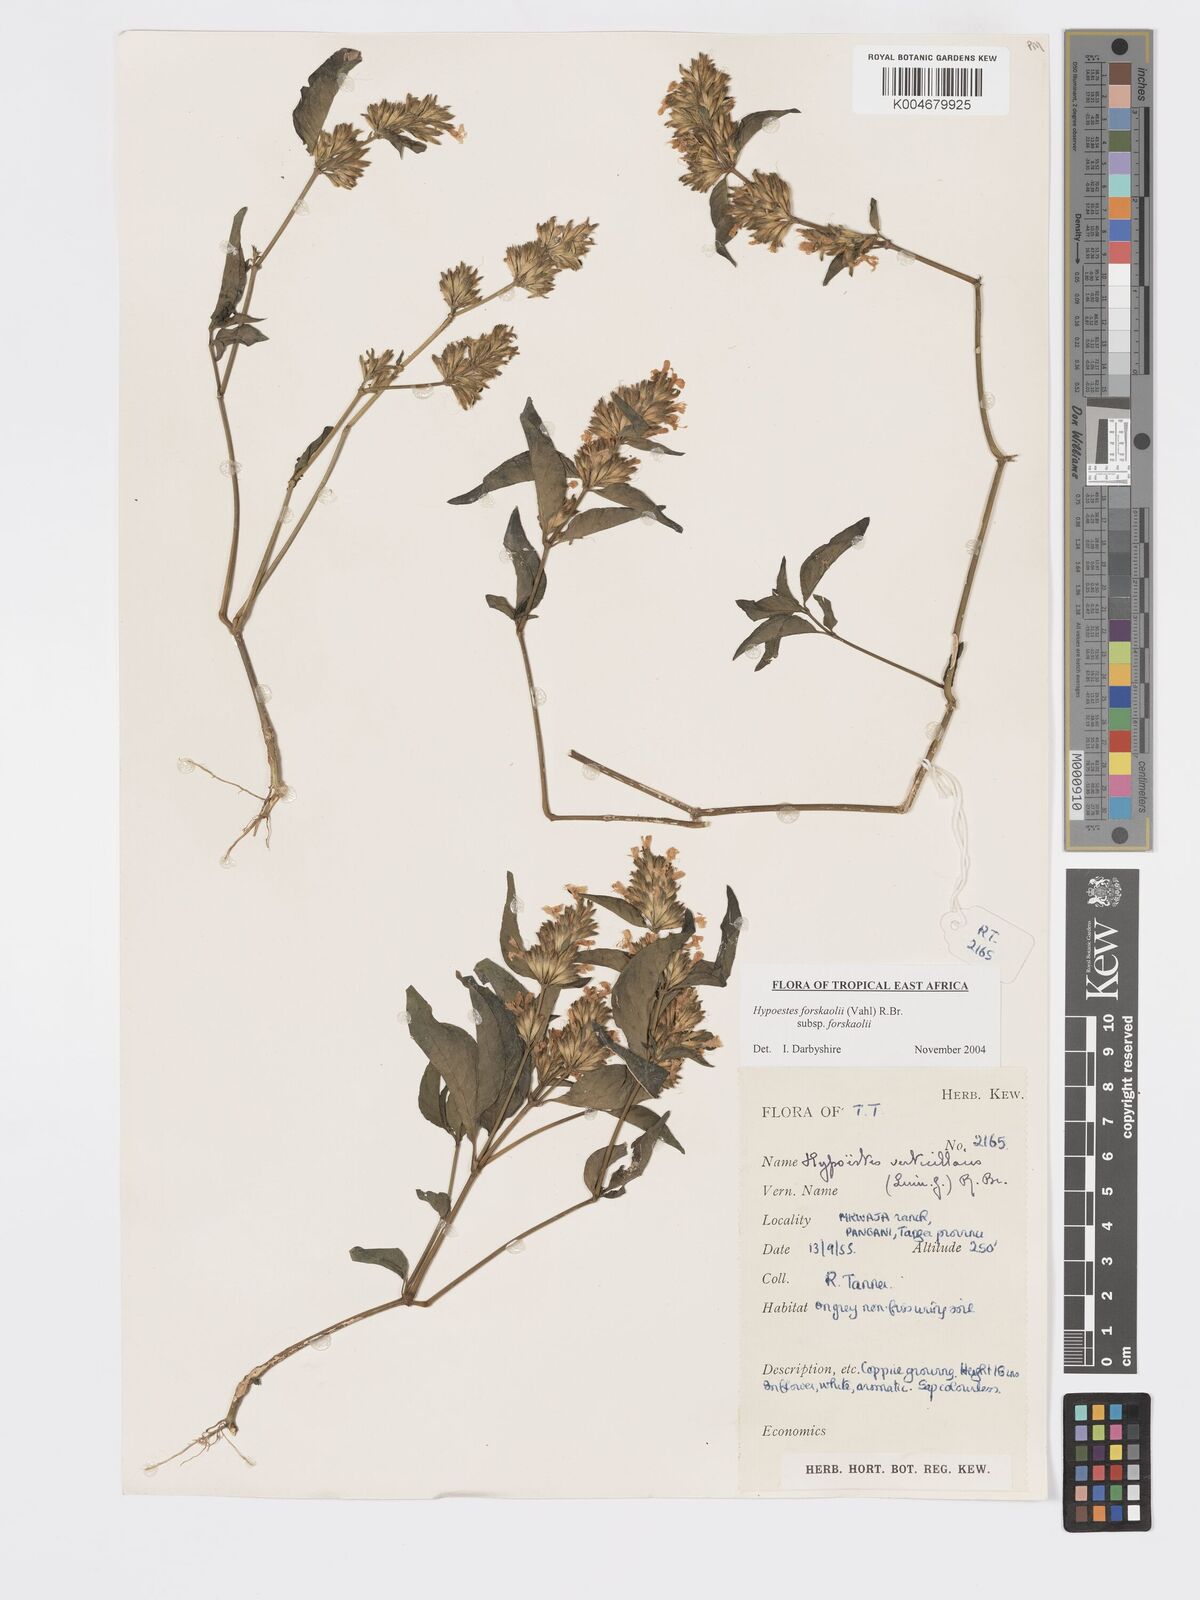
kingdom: Plantae
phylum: Tracheophyta
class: Magnoliopsida
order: Lamiales
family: Acanthaceae
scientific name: Acanthaceae
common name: Acanthaceae
